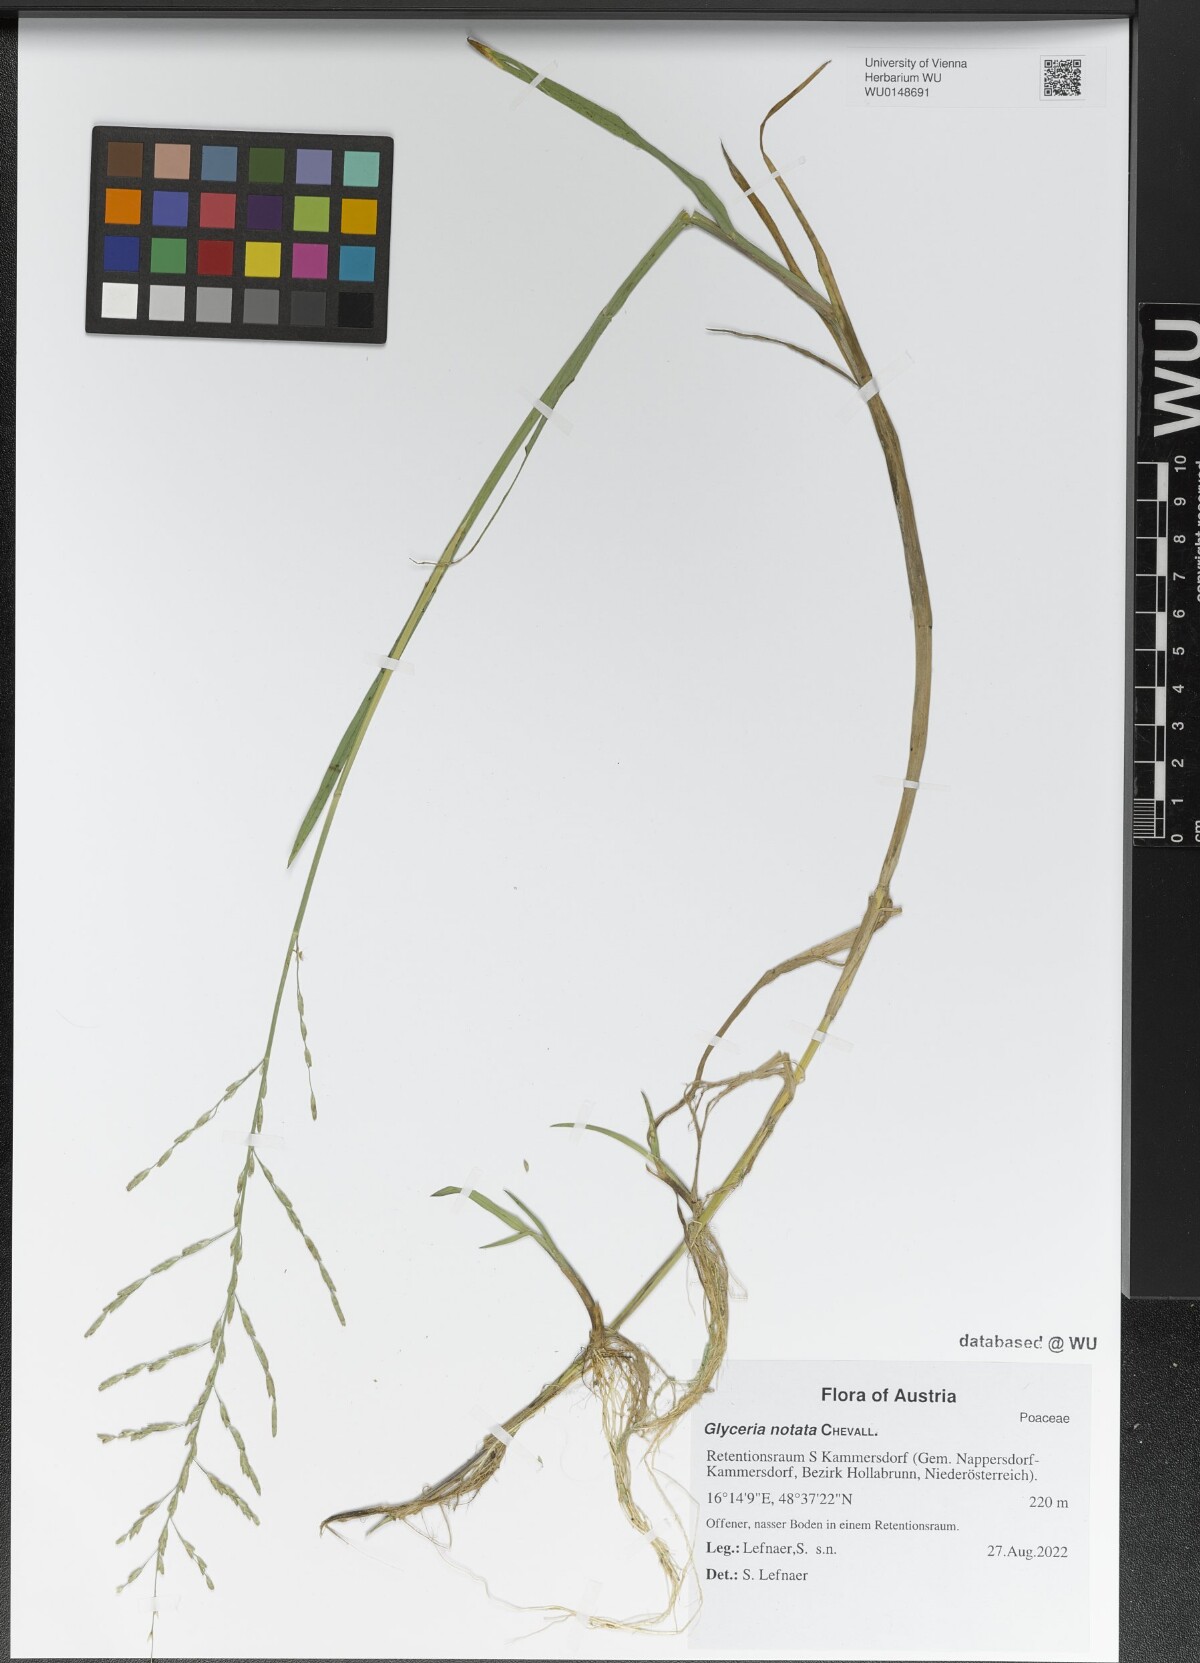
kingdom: Plantae
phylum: Tracheophyta
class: Liliopsida
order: Poales
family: Poaceae
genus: Glyceria
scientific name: Glyceria notata
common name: Plicate sweet-grass
